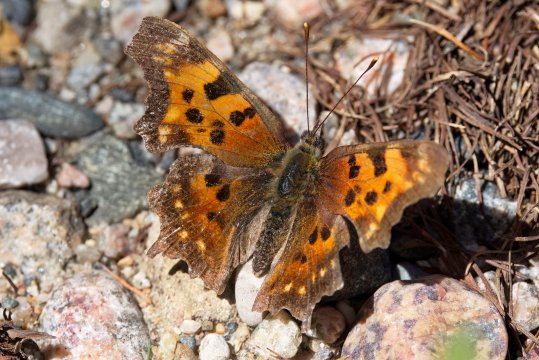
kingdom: Animalia
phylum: Arthropoda
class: Insecta
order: Lepidoptera
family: Nymphalidae
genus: Polygonia
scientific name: Polygonia faunus
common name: Green Comma
